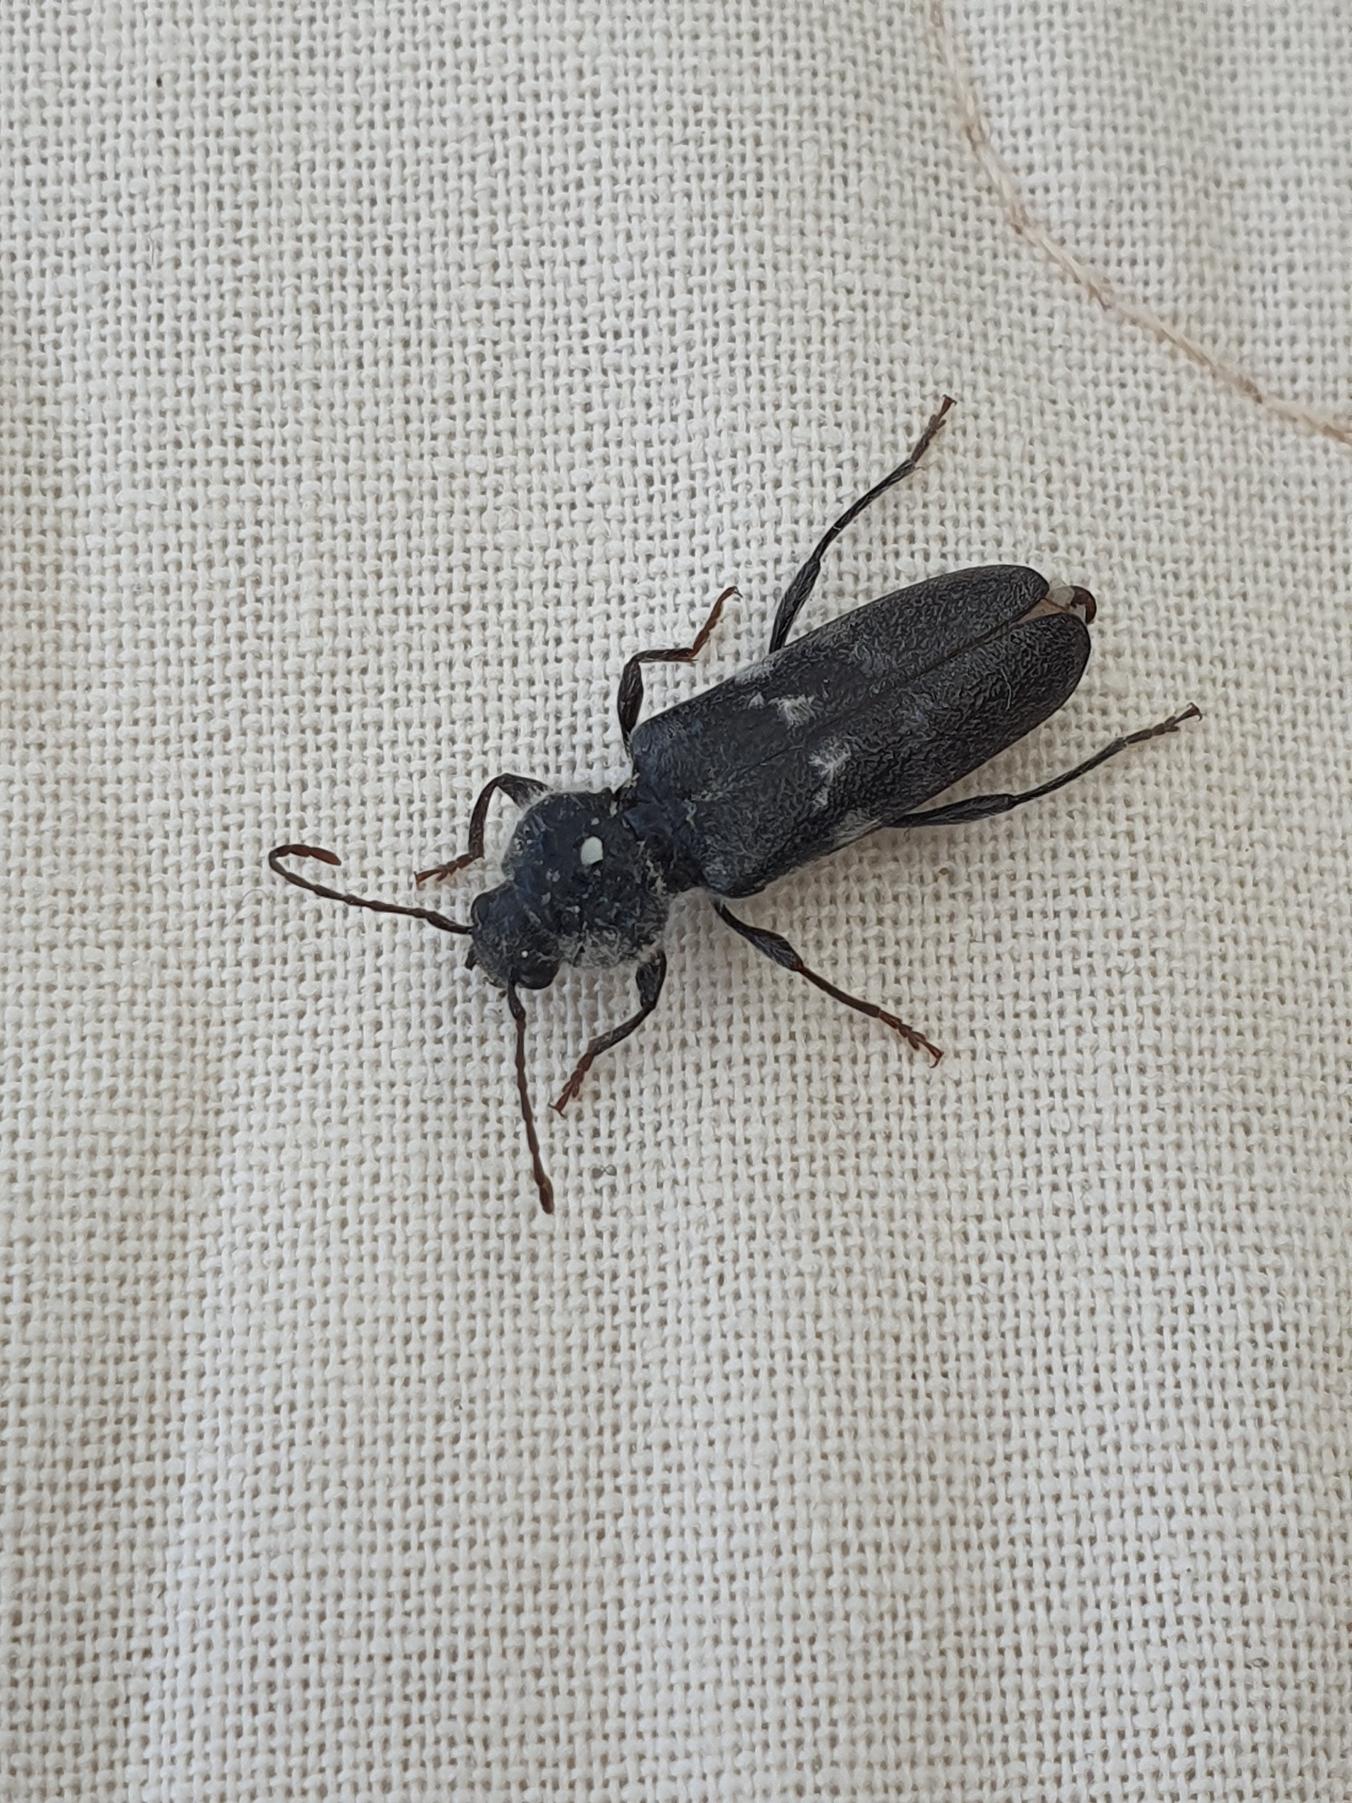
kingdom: Animalia
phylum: Arthropoda
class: Insecta
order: Coleoptera
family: Cerambycidae
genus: Hylotrupes
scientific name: Hylotrupes bajulus
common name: Husbuk
